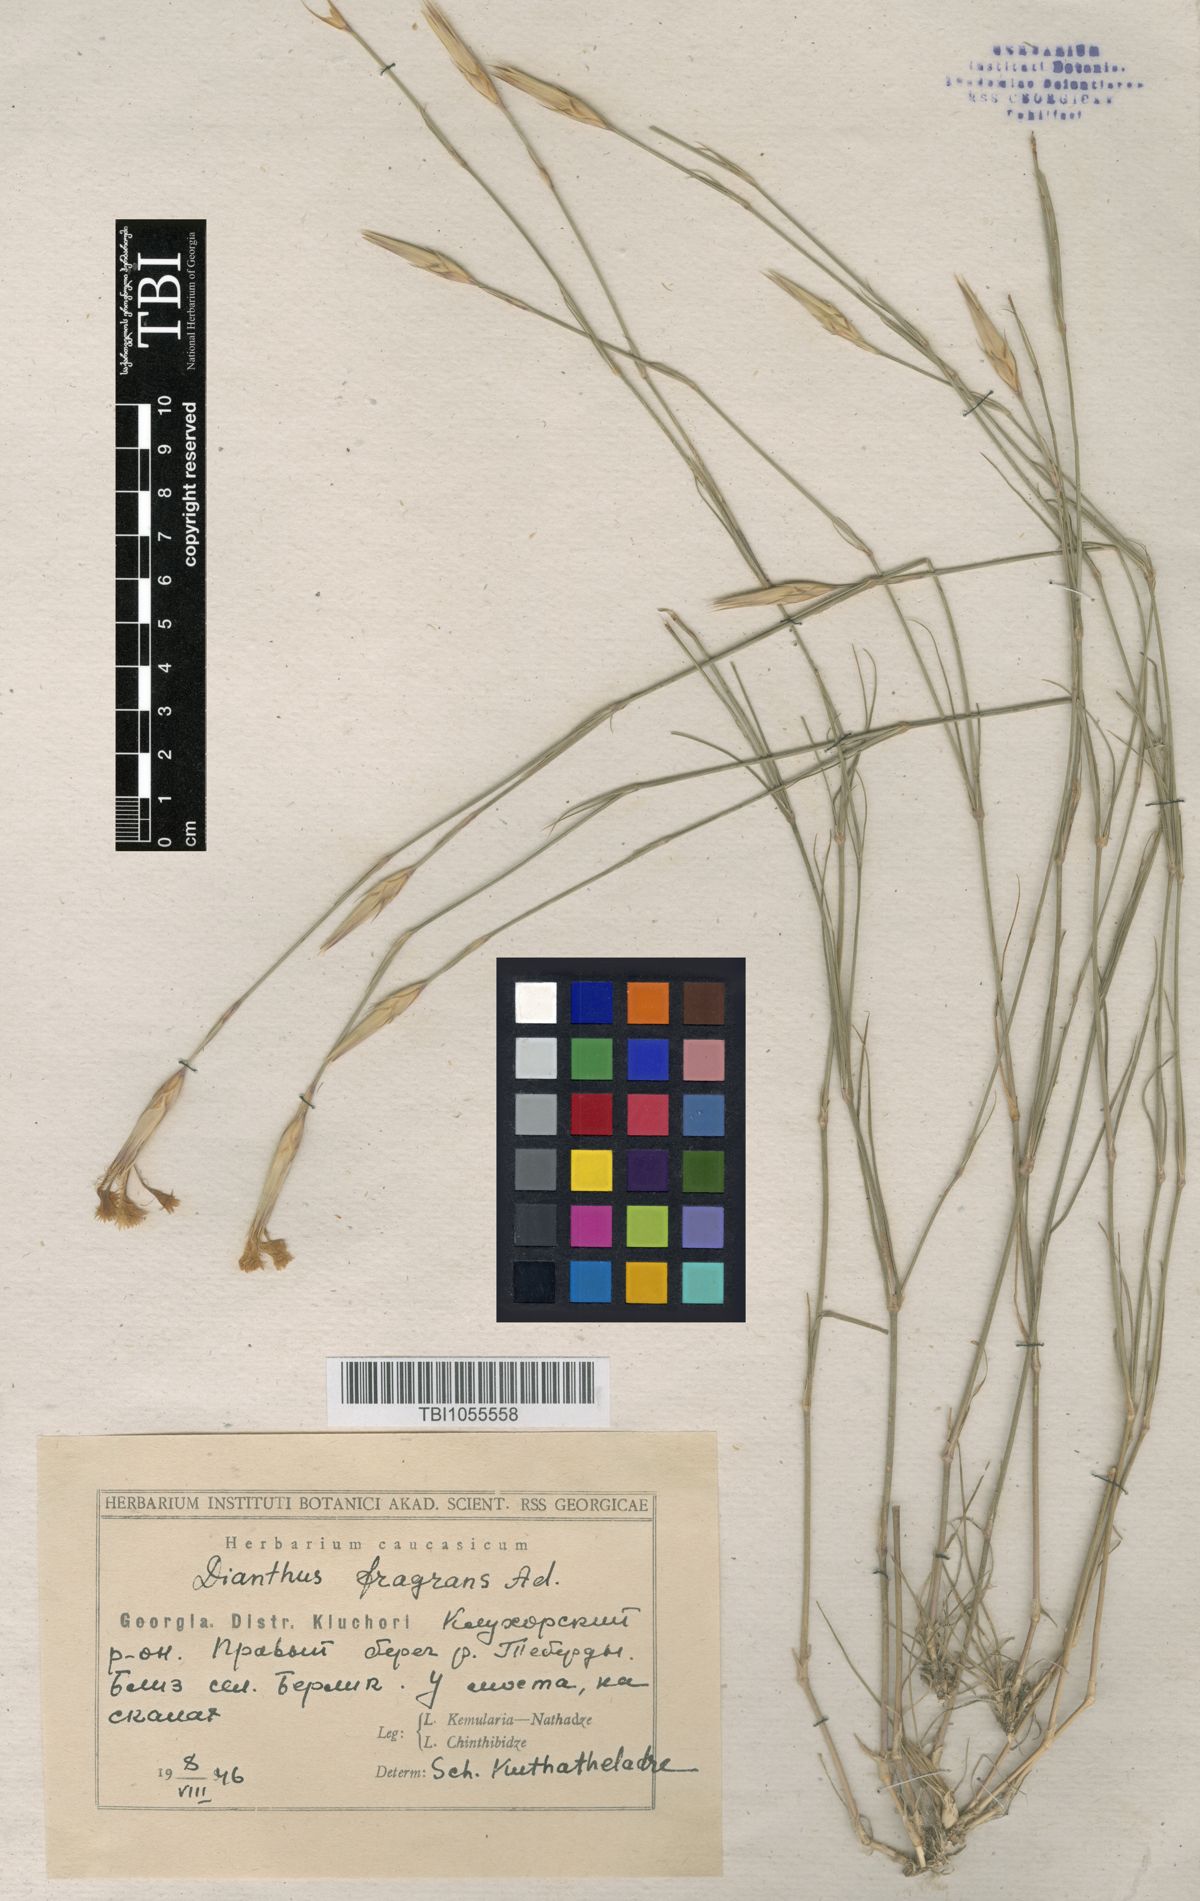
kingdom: Plantae
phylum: Tracheophyta
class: Magnoliopsida
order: Caryophyllales
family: Caryophyllaceae
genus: Dianthus
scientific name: Dianthus
